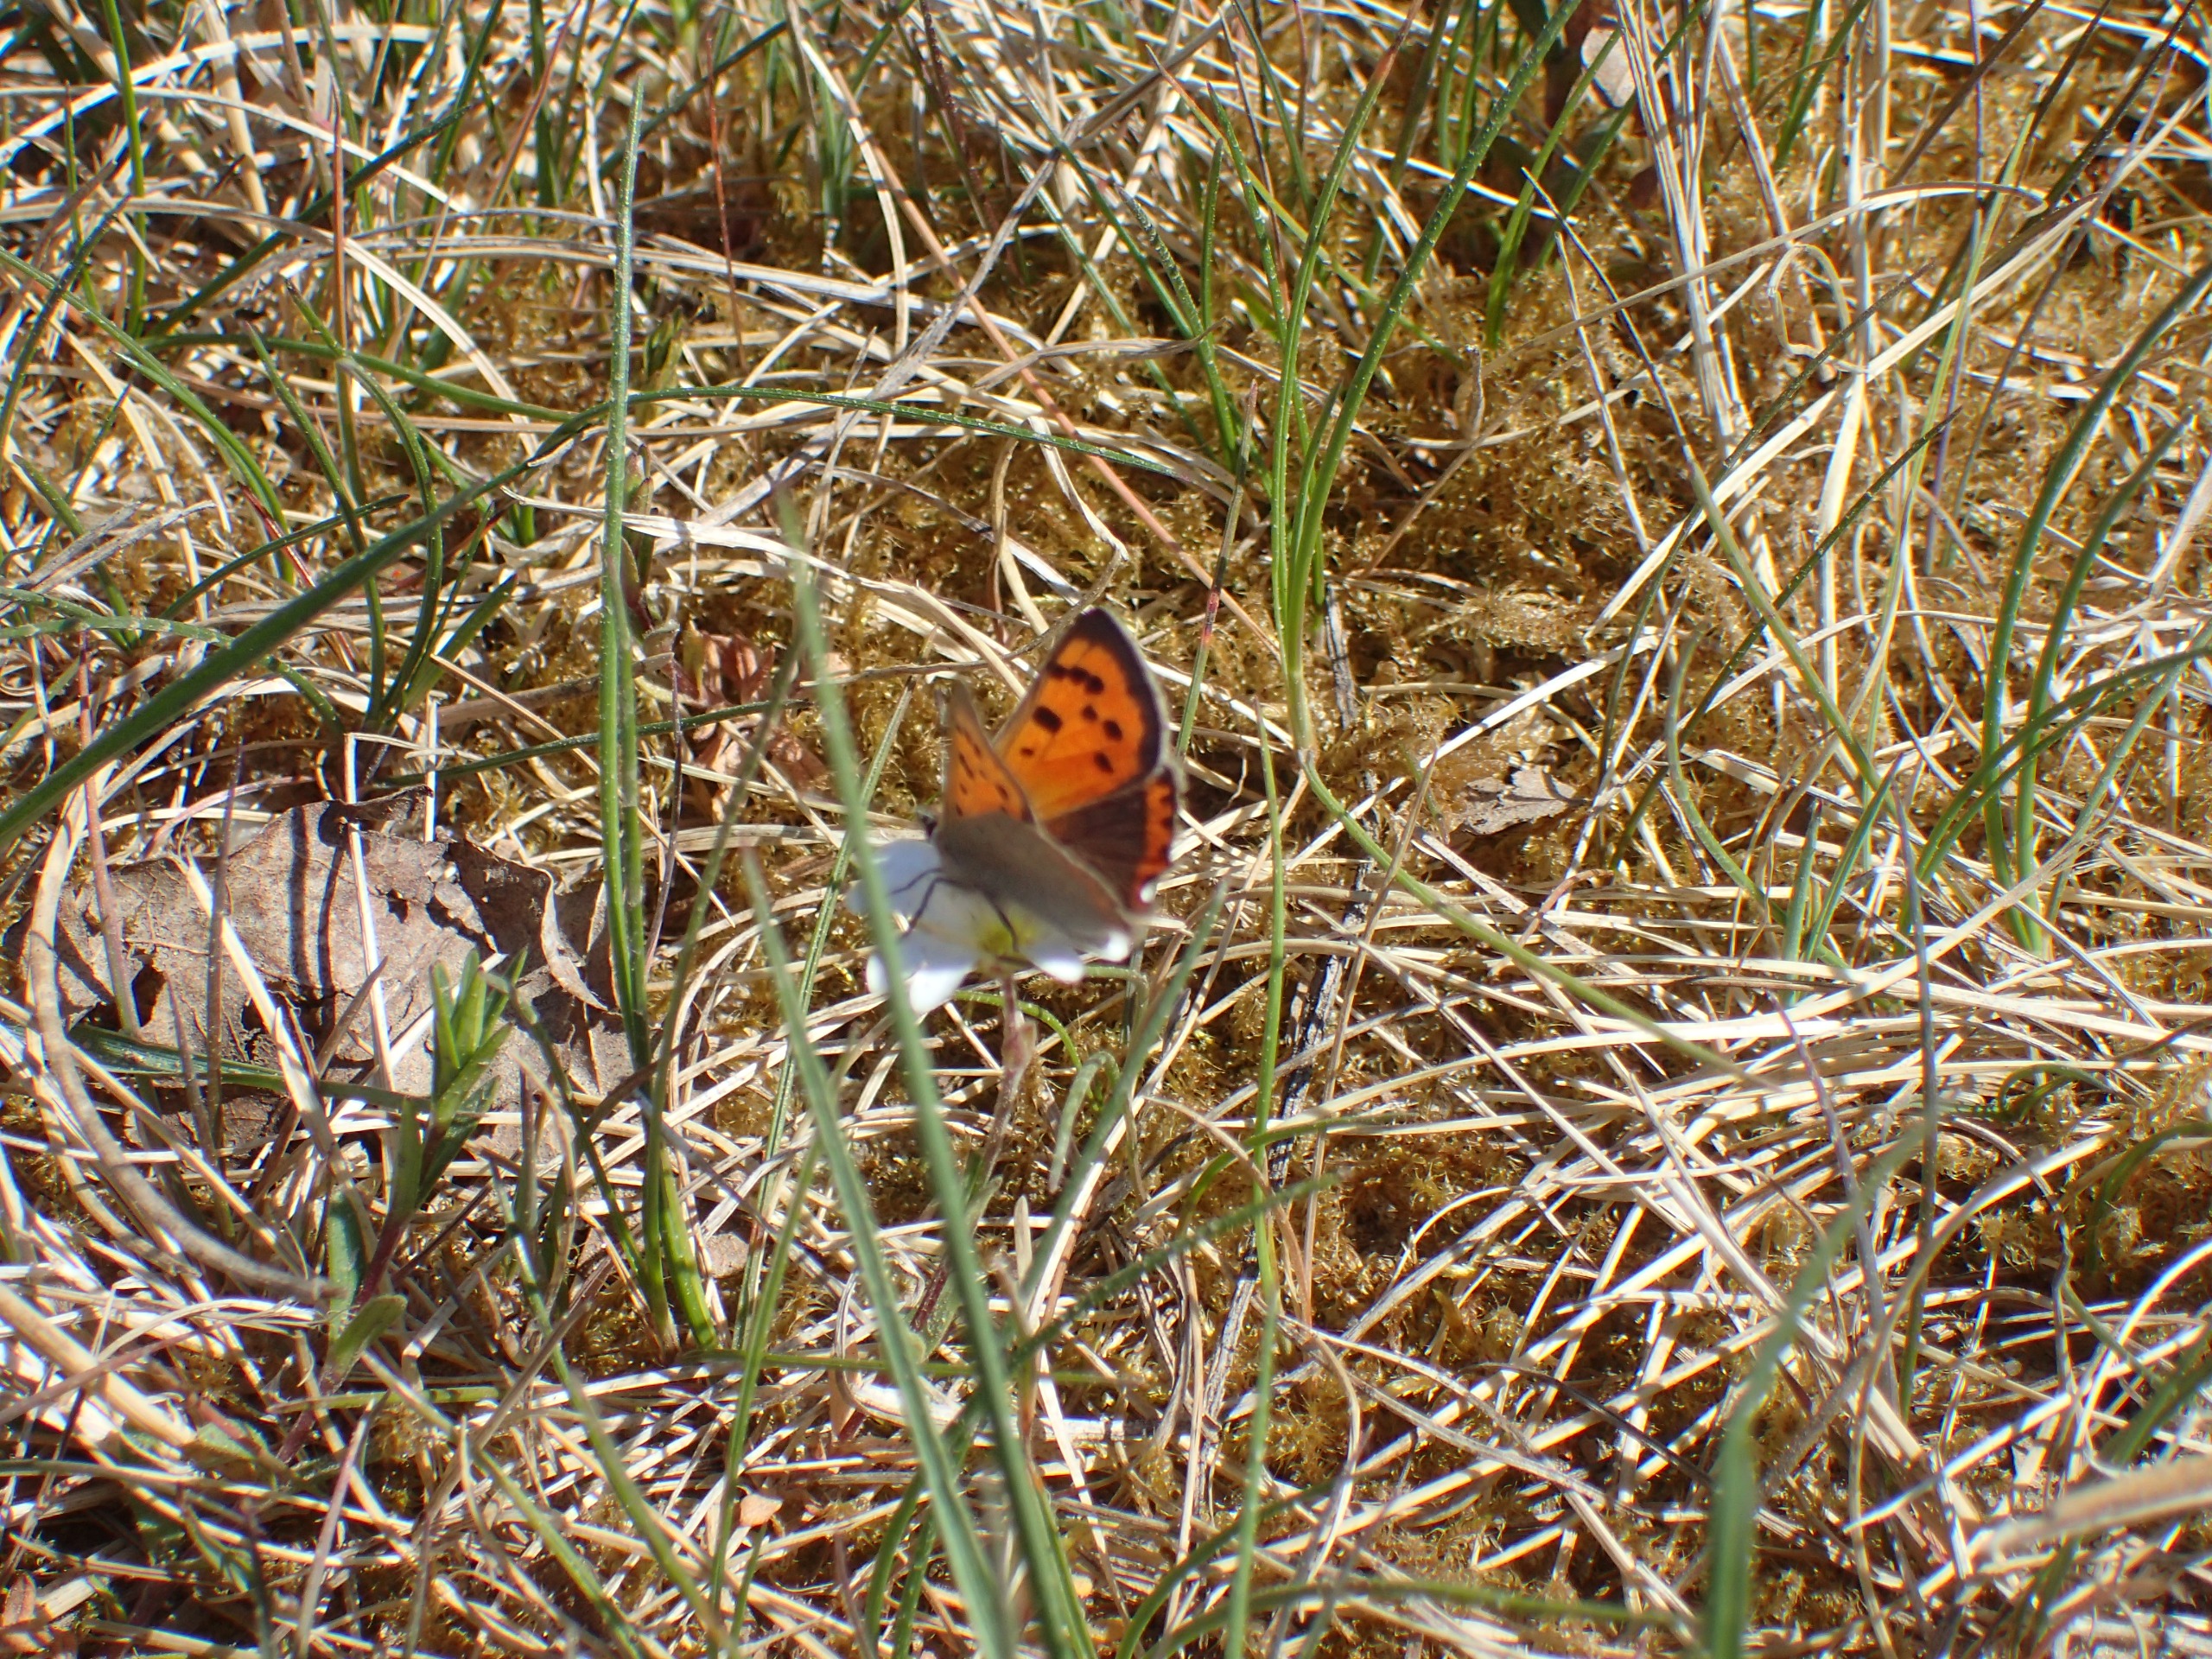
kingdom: Animalia
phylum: Arthropoda
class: Insecta
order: Lepidoptera
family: Lycaenidae
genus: Lycaena
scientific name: Lycaena phlaeas
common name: Lille ildfugl
